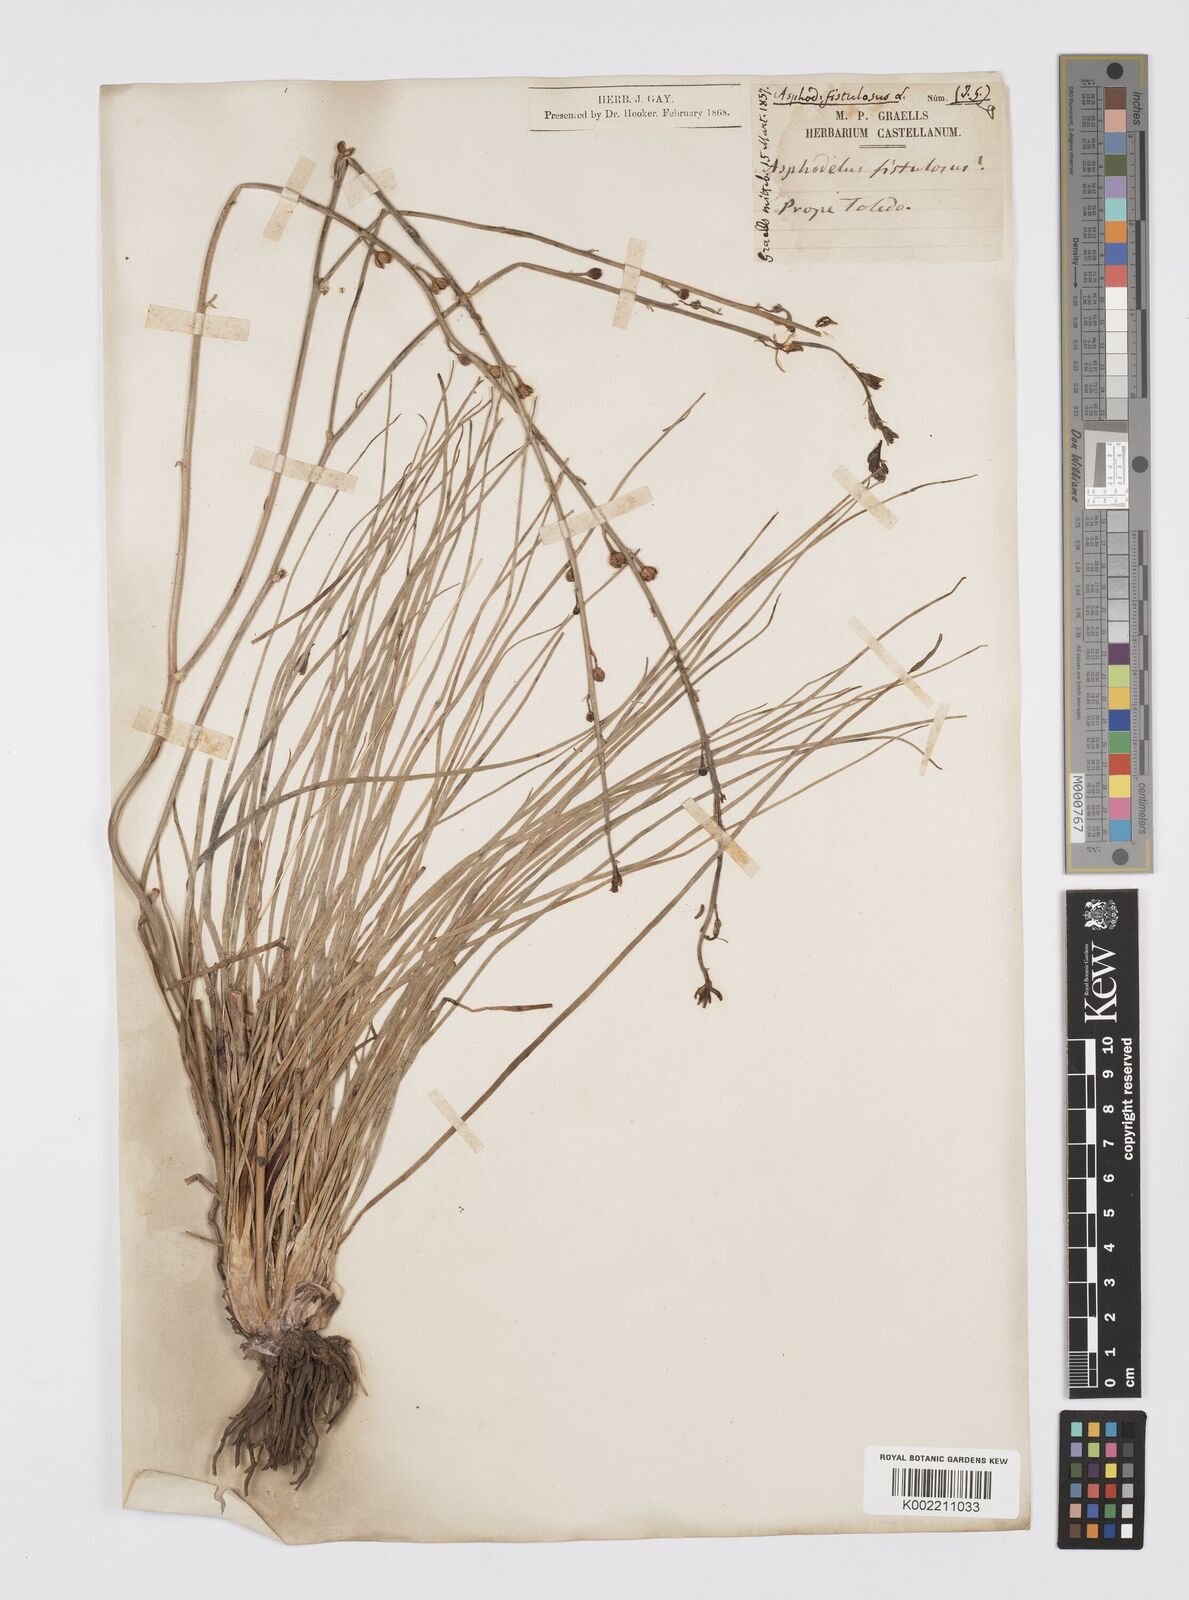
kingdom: Plantae
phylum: Tracheophyta
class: Liliopsida
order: Asparagales
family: Asphodelaceae
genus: Asphodelus
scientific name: Asphodelus fistulosus
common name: Onionweed
